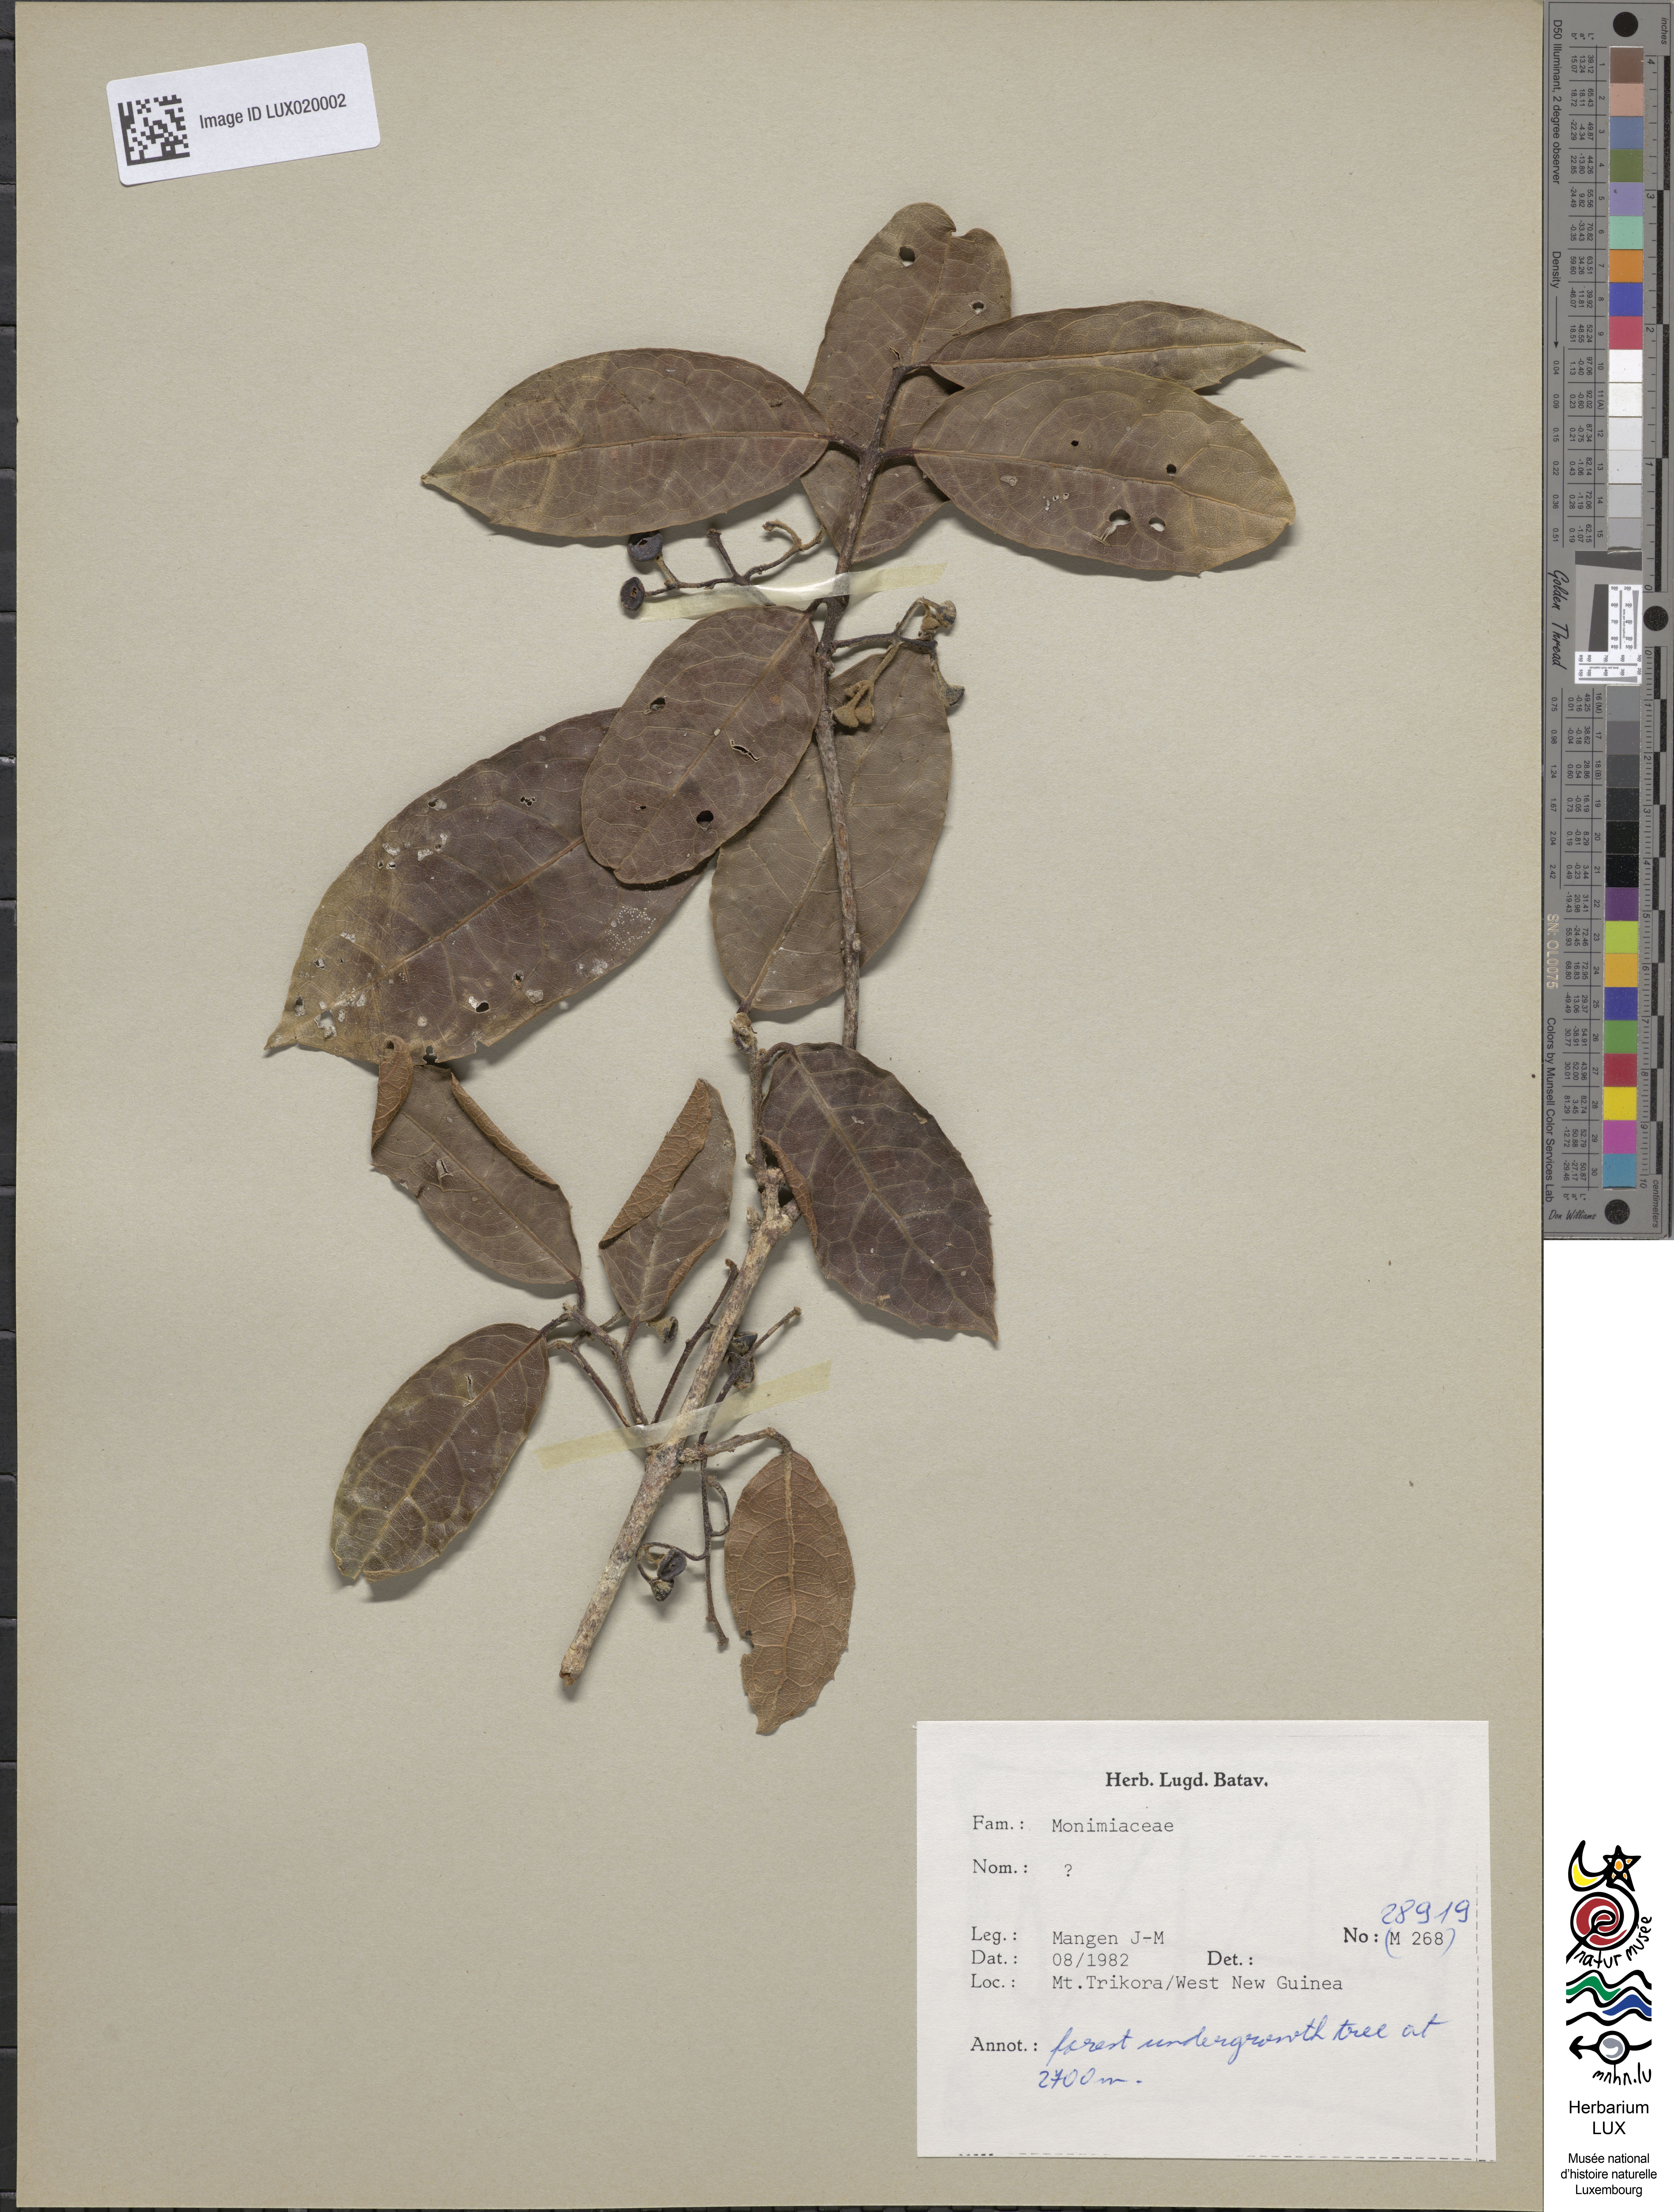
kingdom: Plantae
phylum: Tracheophyta
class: Magnoliopsida
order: Laurales
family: Monimiaceae
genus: Palmeria
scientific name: Palmeria gracilis
